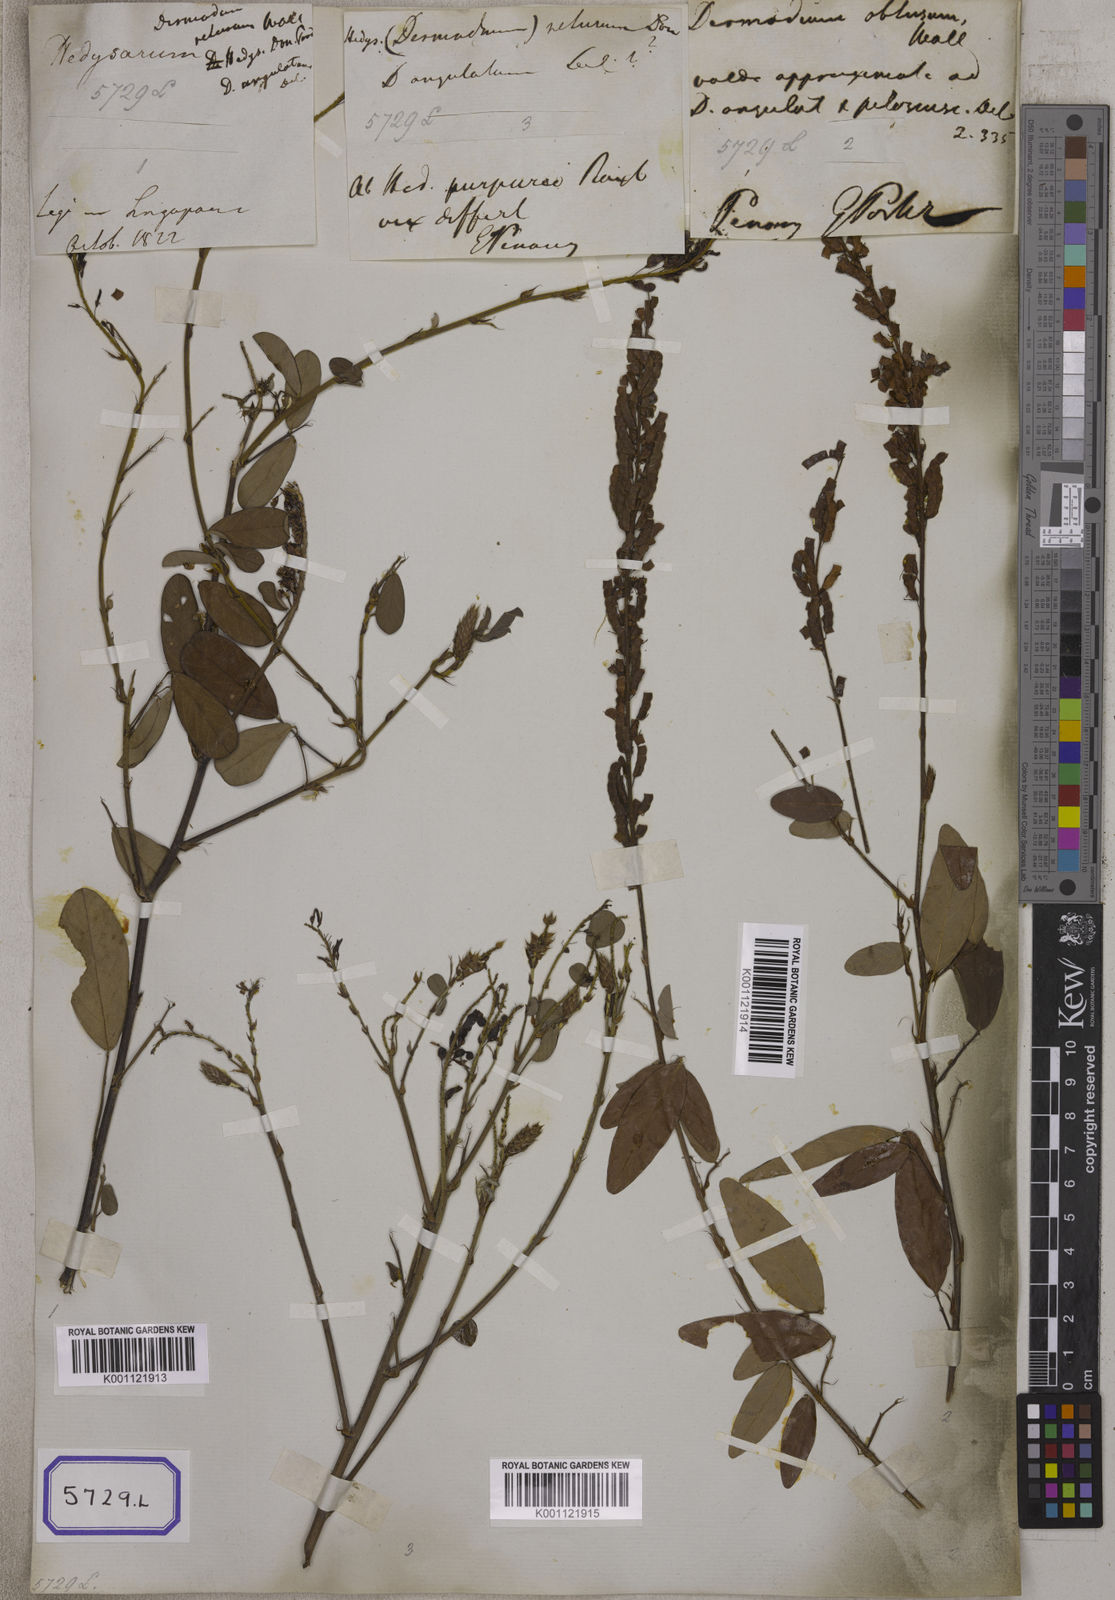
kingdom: Plantae
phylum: Tracheophyta
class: Magnoliopsida
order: Fabales
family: Fabaceae
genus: Desmodium
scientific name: Desmodium
